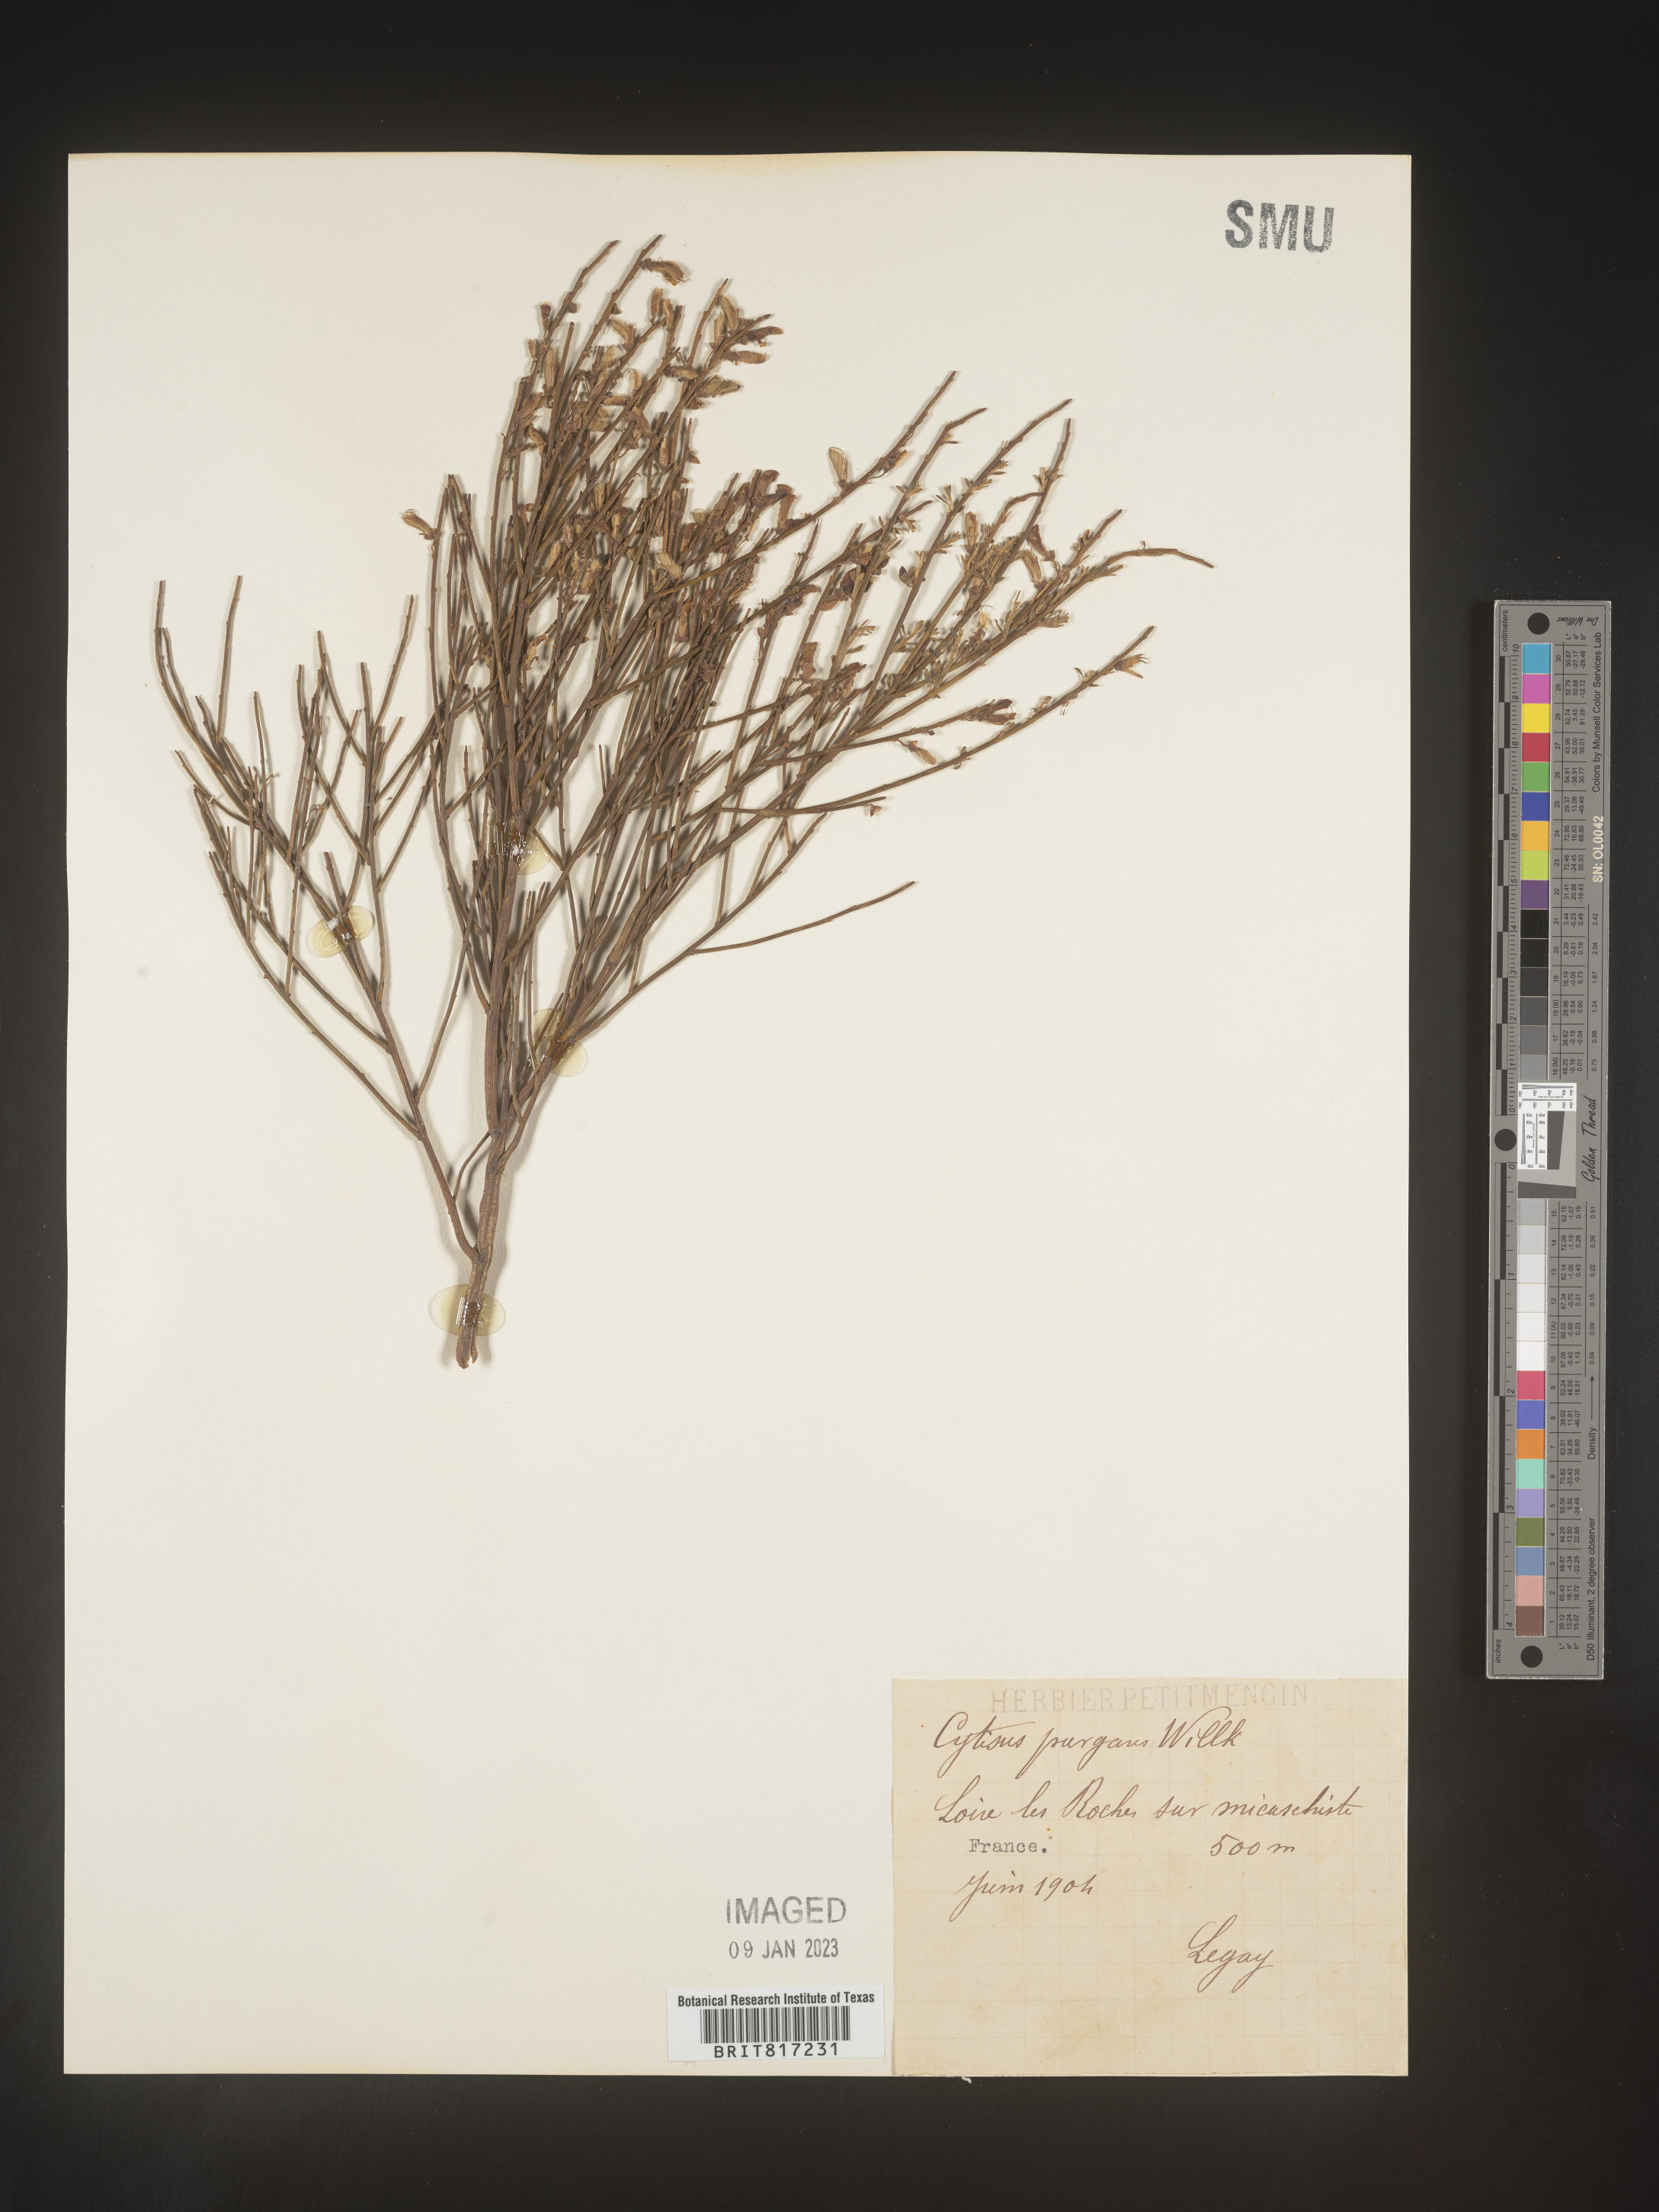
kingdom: Plantae
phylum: Tracheophyta
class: Magnoliopsida
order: Fabales
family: Fabaceae
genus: Cytisus
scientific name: Cytisus
